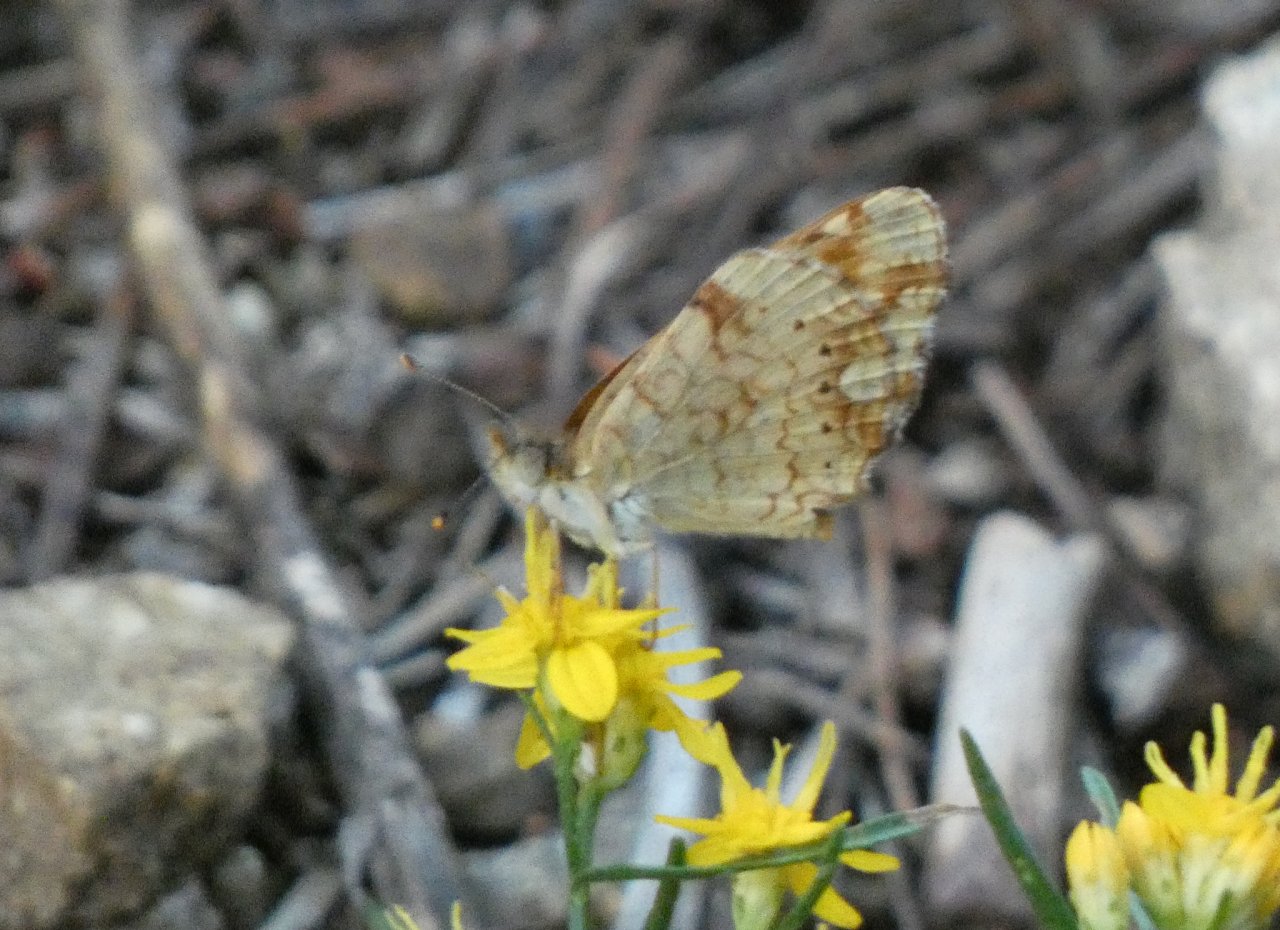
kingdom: Animalia
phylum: Arthropoda
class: Insecta
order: Lepidoptera
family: Nymphalidae
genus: Eresia
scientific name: Eresia aveyrona
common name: Mylitta Crescent
